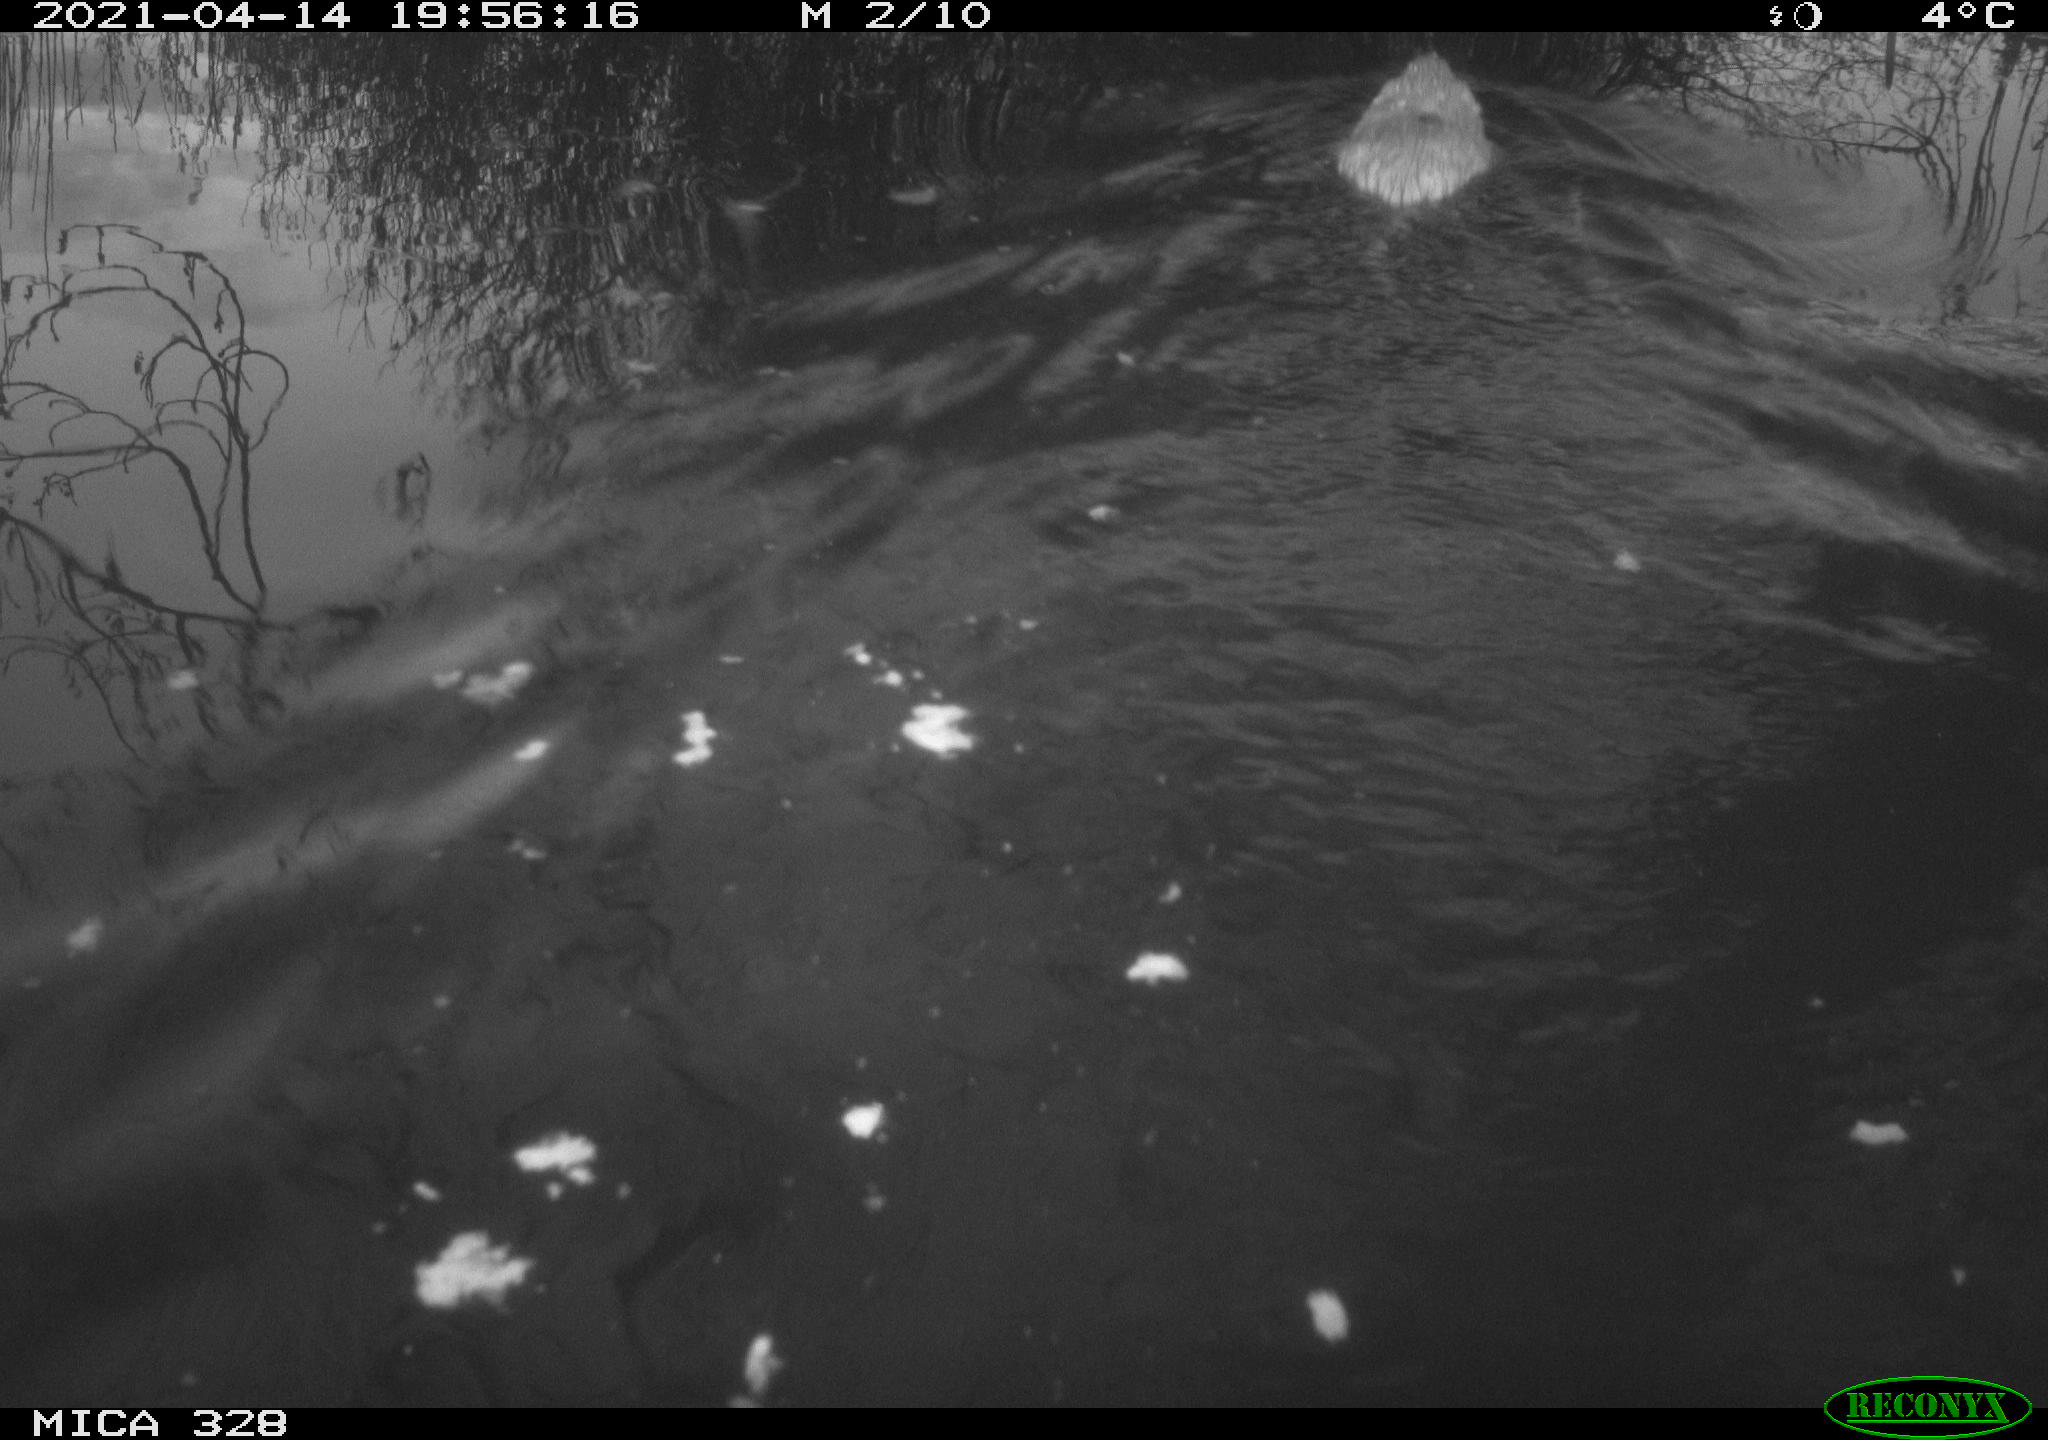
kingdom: Animalia
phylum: Chordata
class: Mammalia
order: Rodentia
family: Cricetidae
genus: Ondatra
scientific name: Ondatra zibethicus
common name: Muskrat
